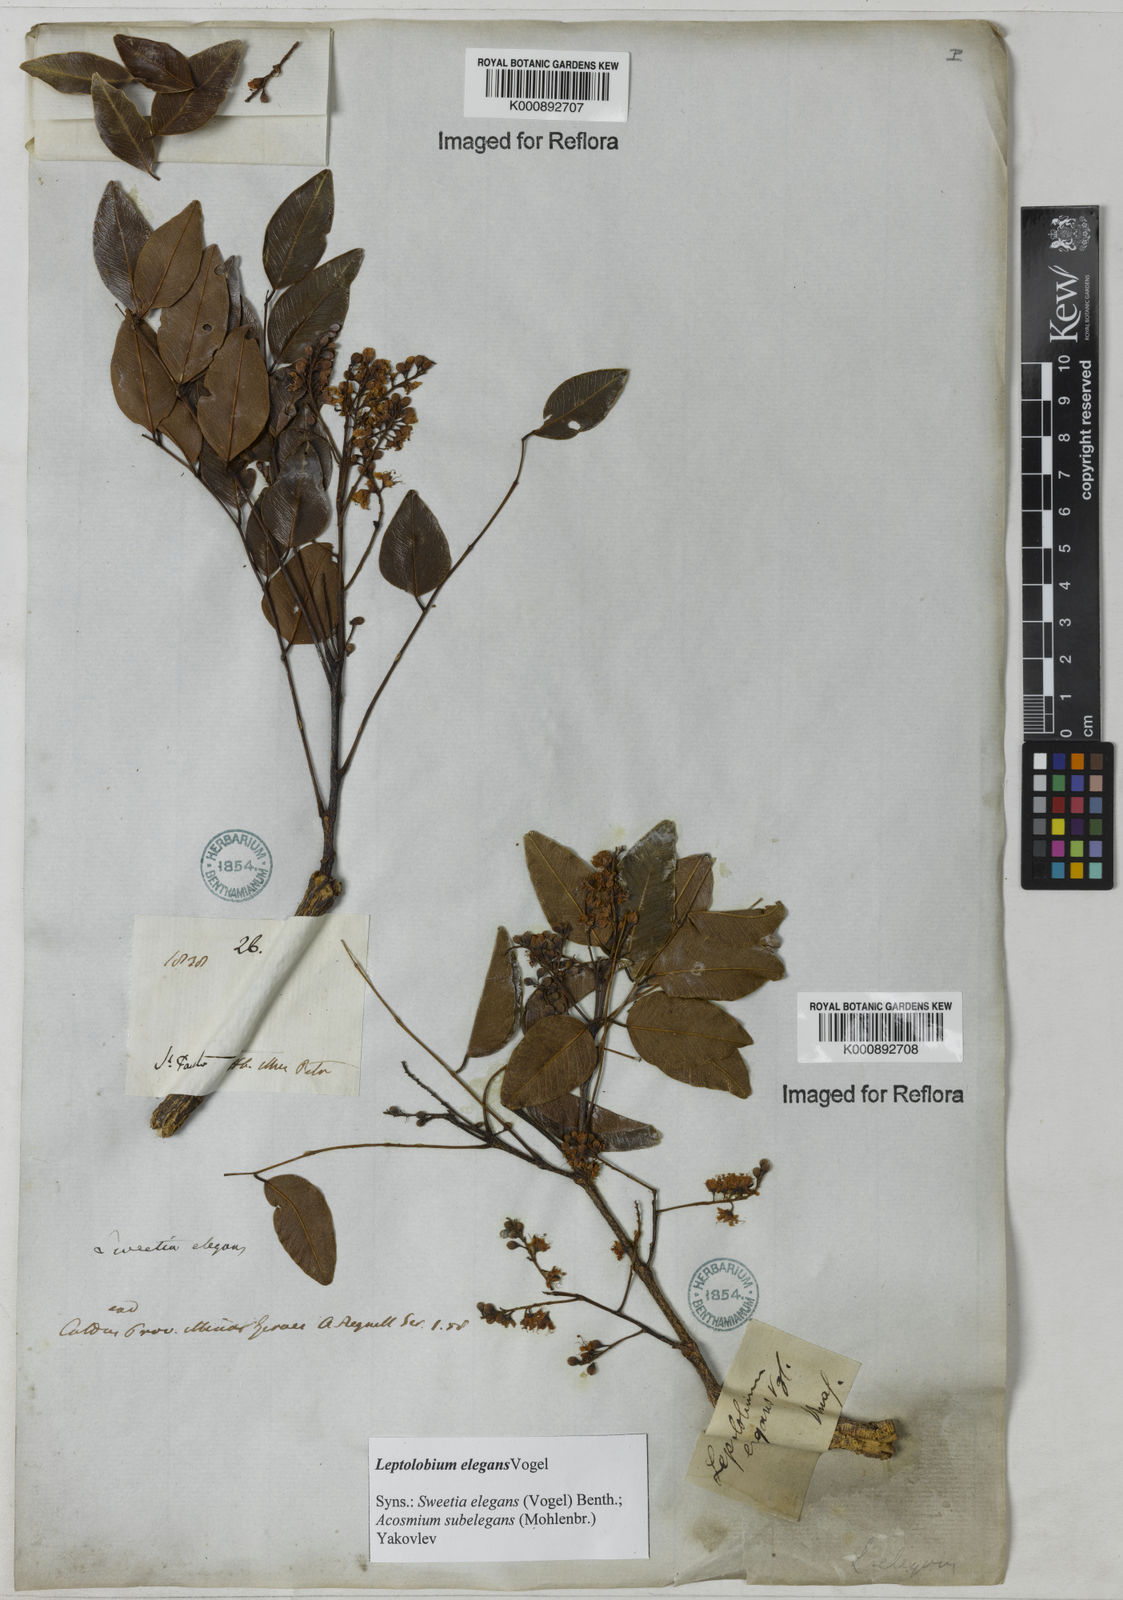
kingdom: Plantae
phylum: Tracheophyta
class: Magnoliopsida
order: Fabales
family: Fabaceae
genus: Leptolobium
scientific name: Leptolobium elegans
